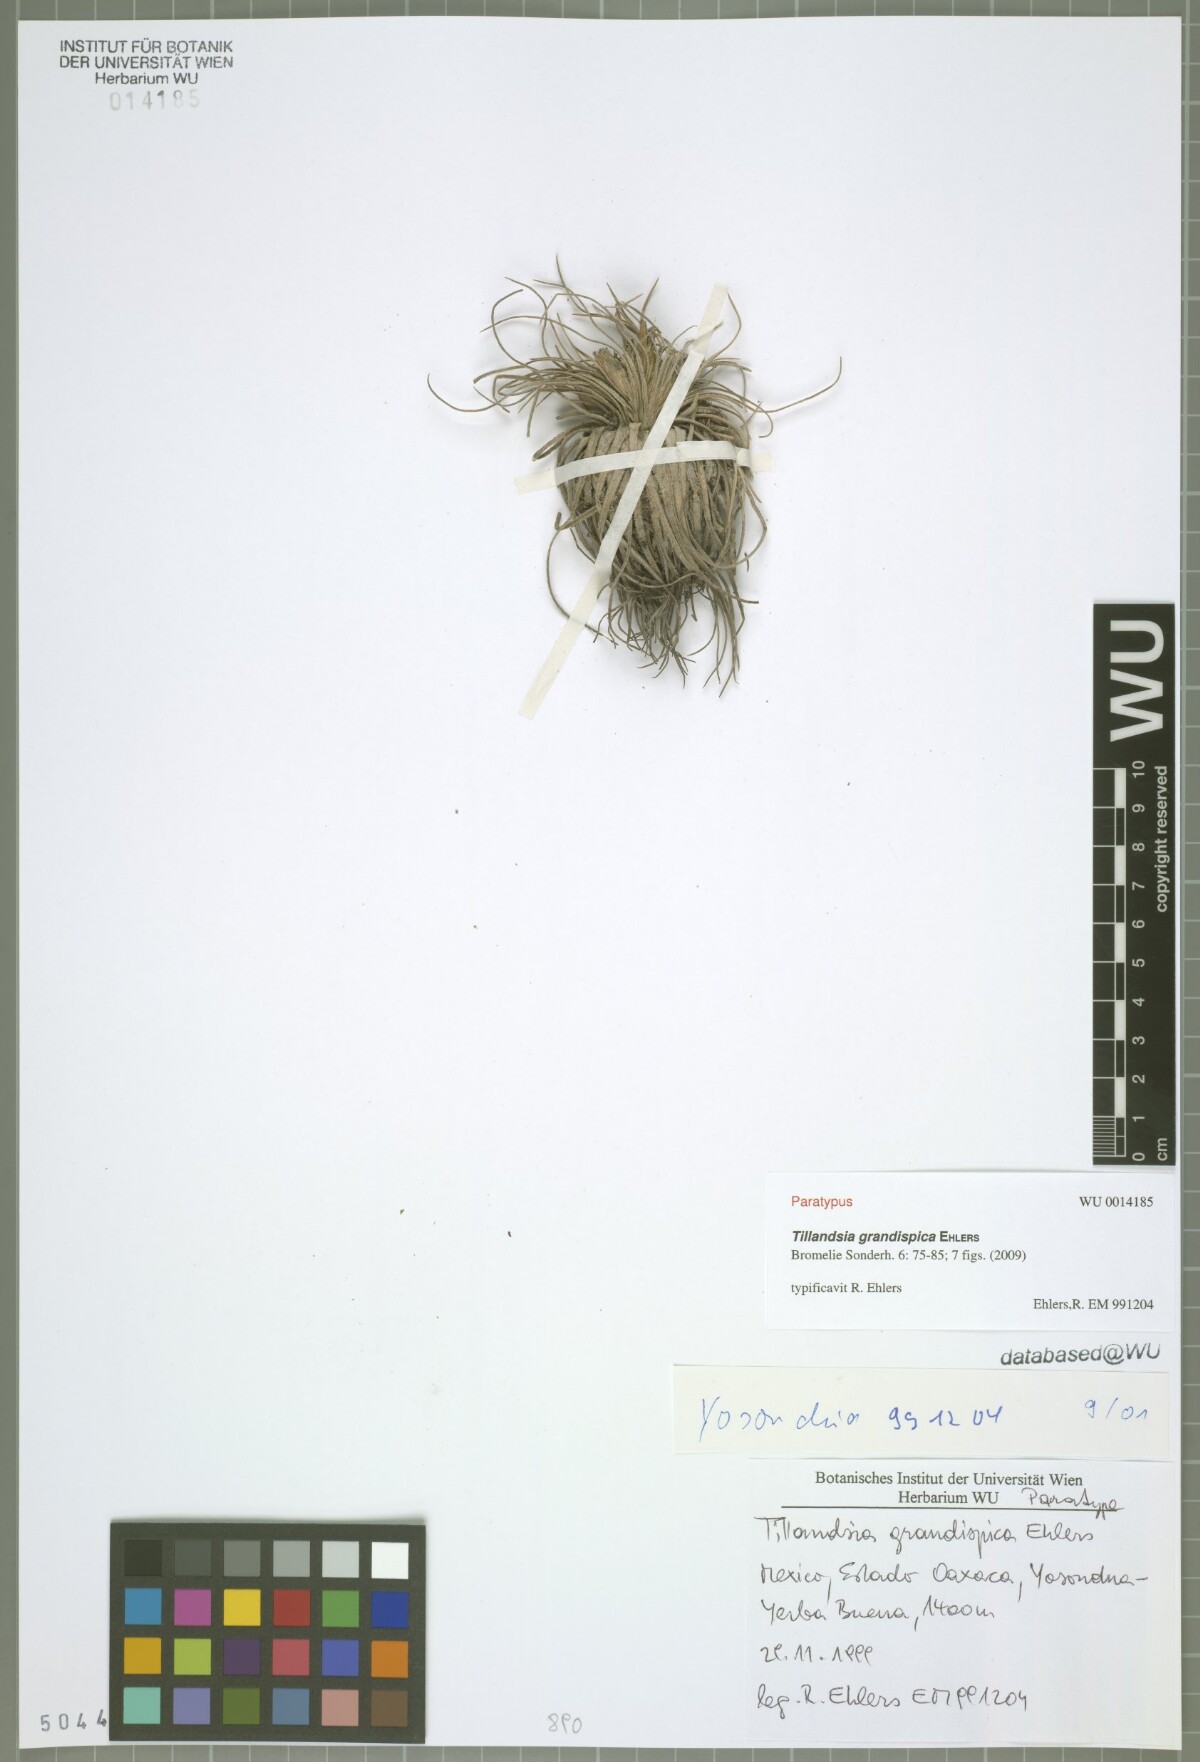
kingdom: Plantae
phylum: Tracheophyta
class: Liliopsida
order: Poales
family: Bromeliaceae
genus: Tillandsia
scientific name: Tillandsia grandispica
